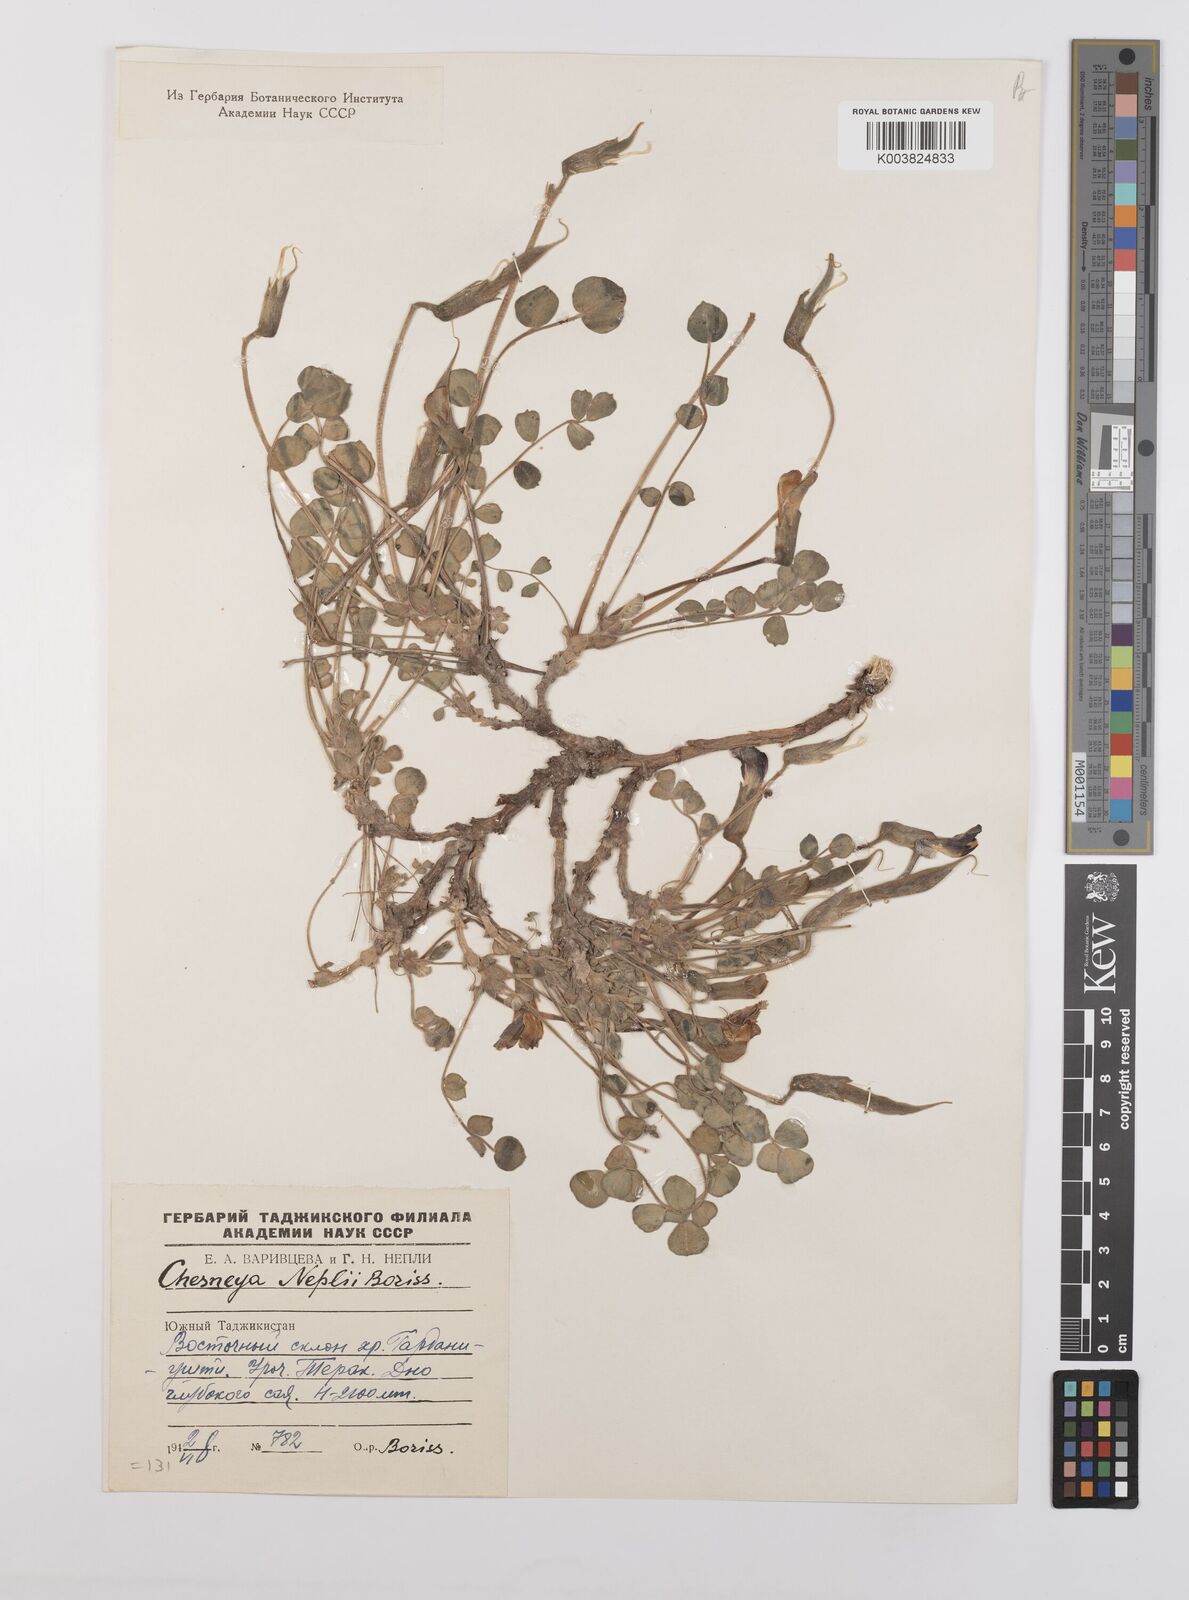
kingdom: Plantae
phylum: Tracheophyta
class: Magnoliopsida
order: Fabales
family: Fabaceae
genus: Chesneya
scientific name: Chesneya neplii
